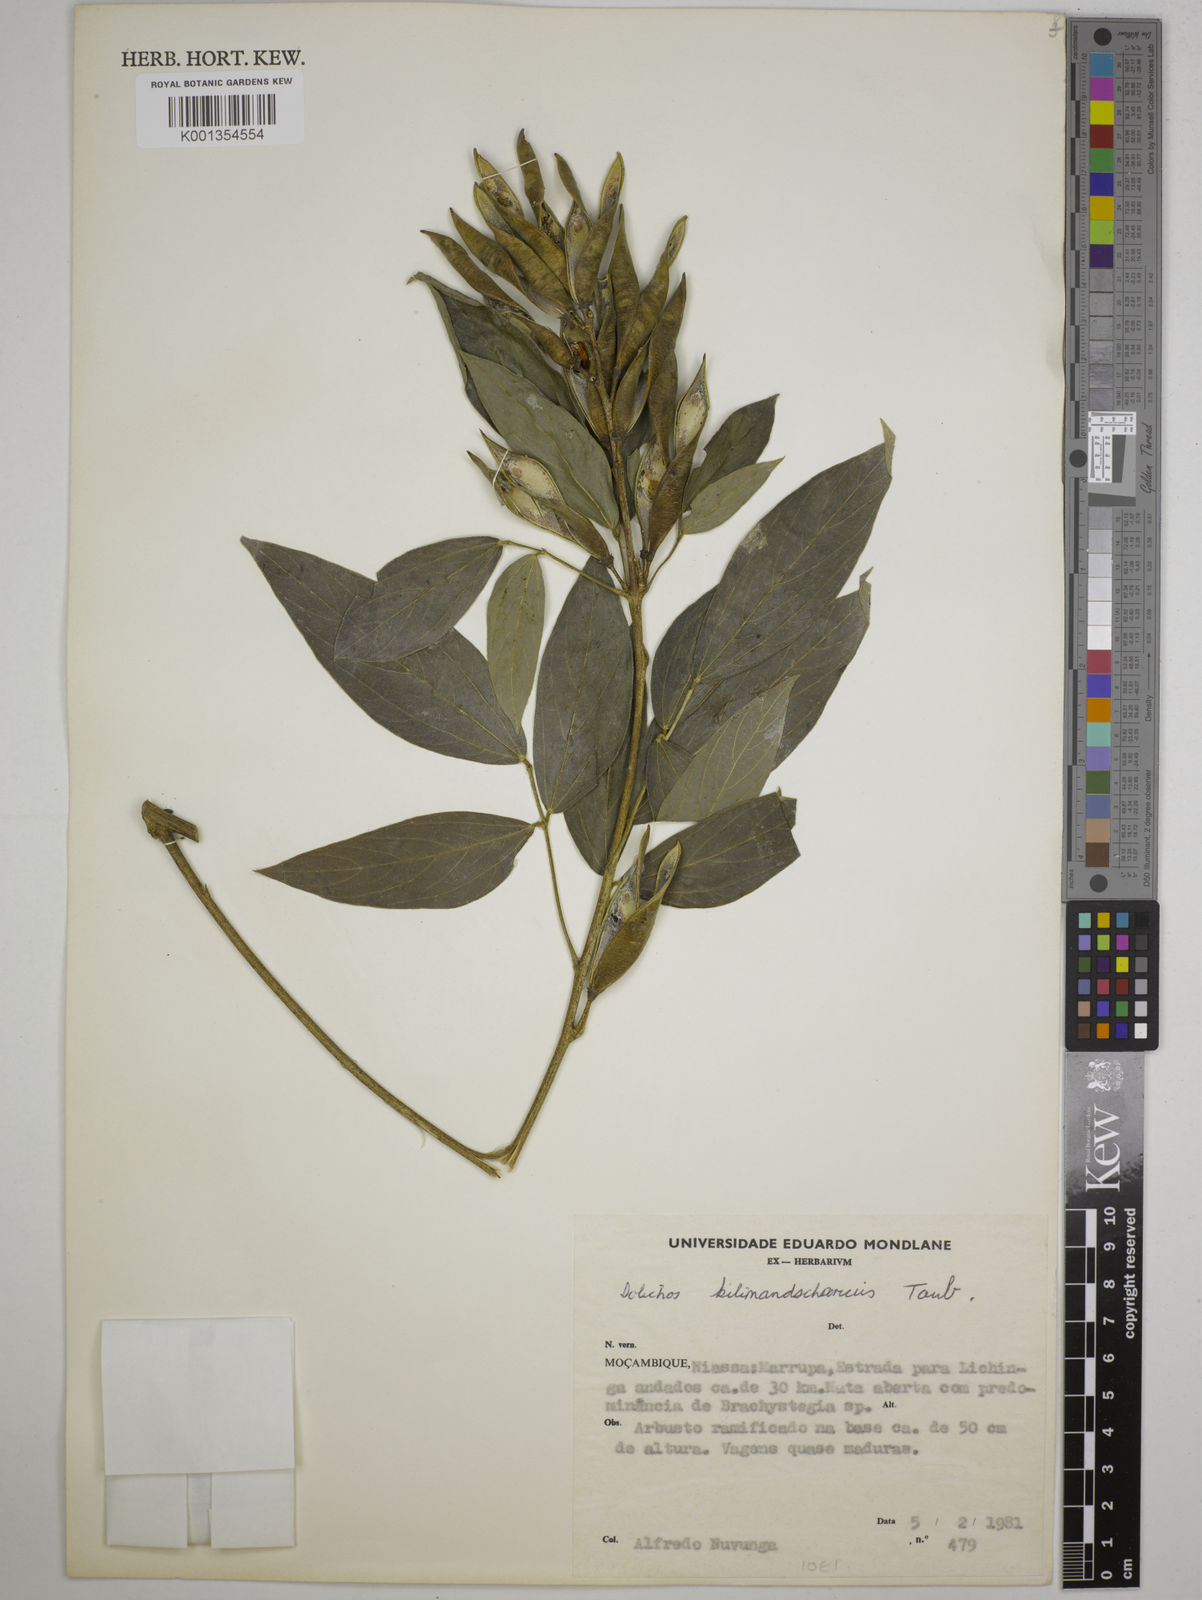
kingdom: Plantae
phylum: Tracheophyta
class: Magnoliopsida
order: Fabales
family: Fabaceae
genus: Dolichos
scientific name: Dolichos kilimandscharicus
